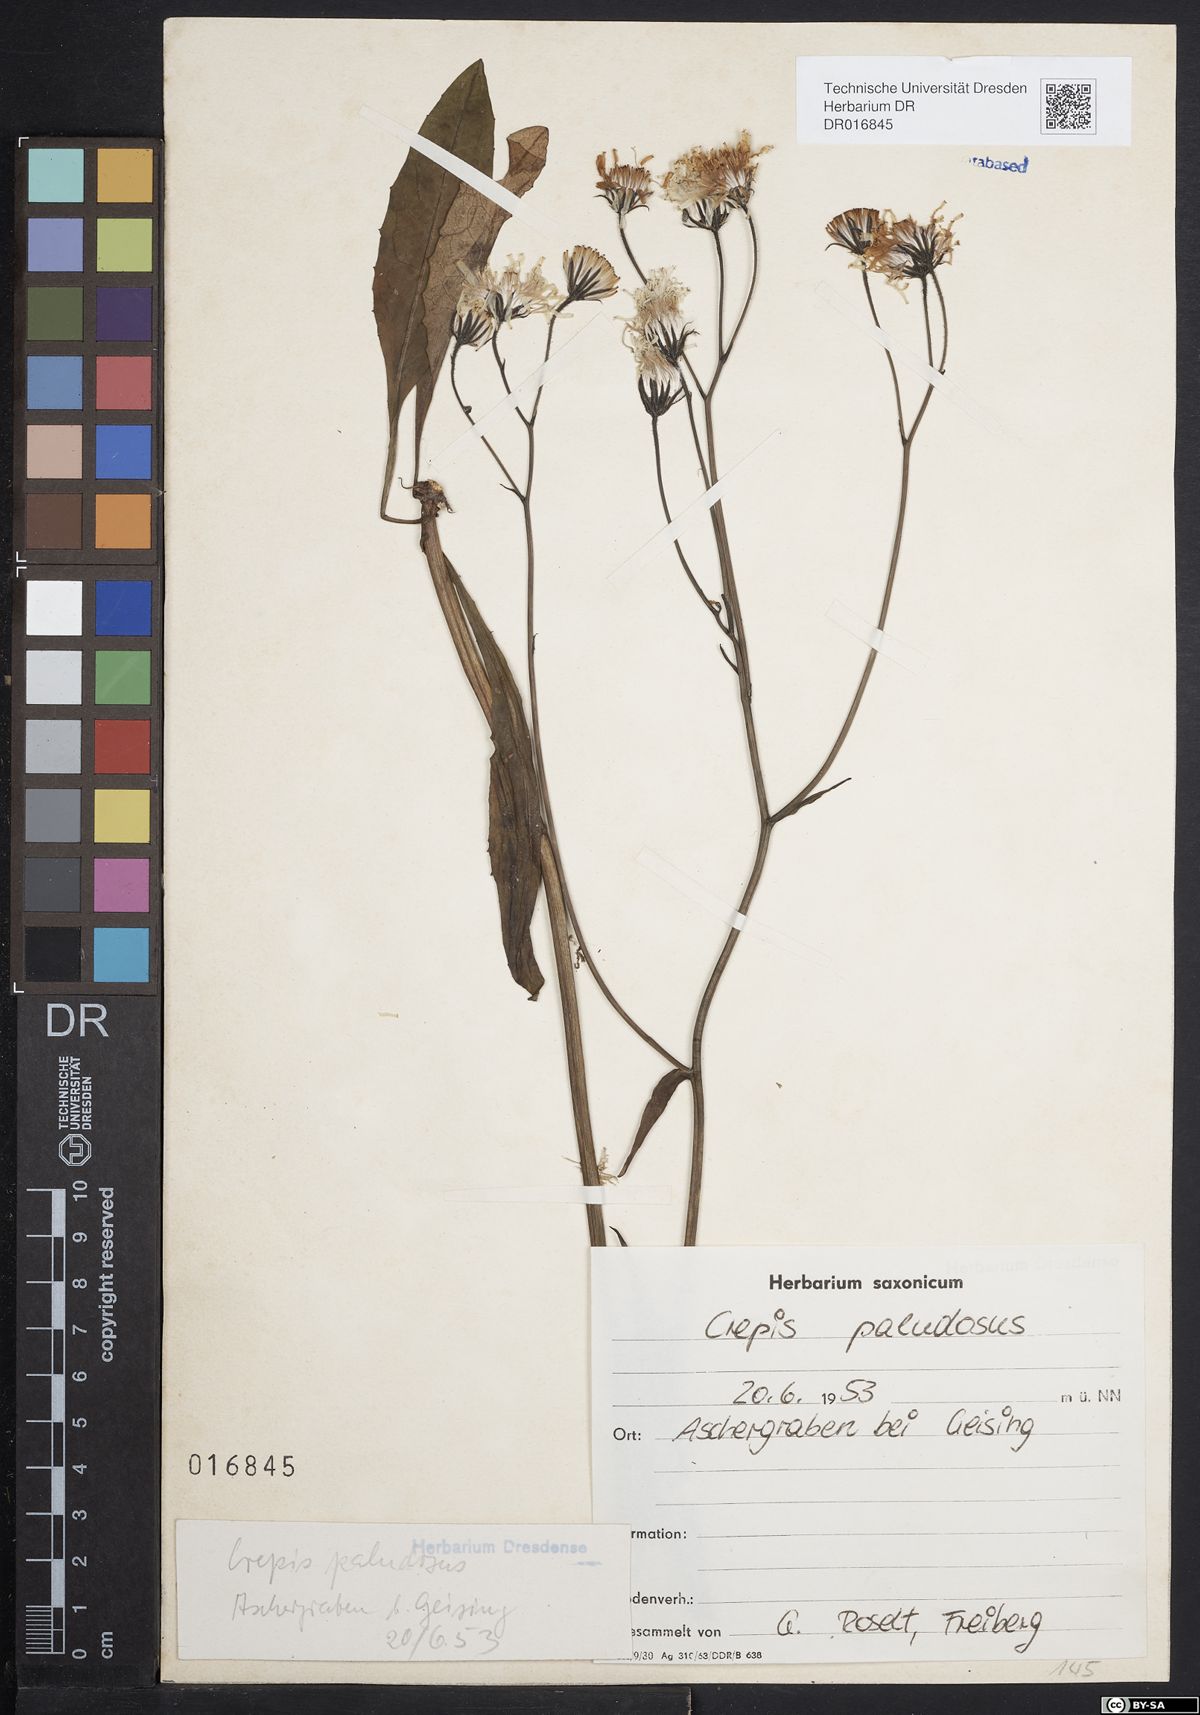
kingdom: Plantae
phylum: Tracheophyta
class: Magnoliopsida
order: Asterales
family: Asteraceae
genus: Crepis
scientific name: Crepis paludosa
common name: Marsh hawk's-beard
